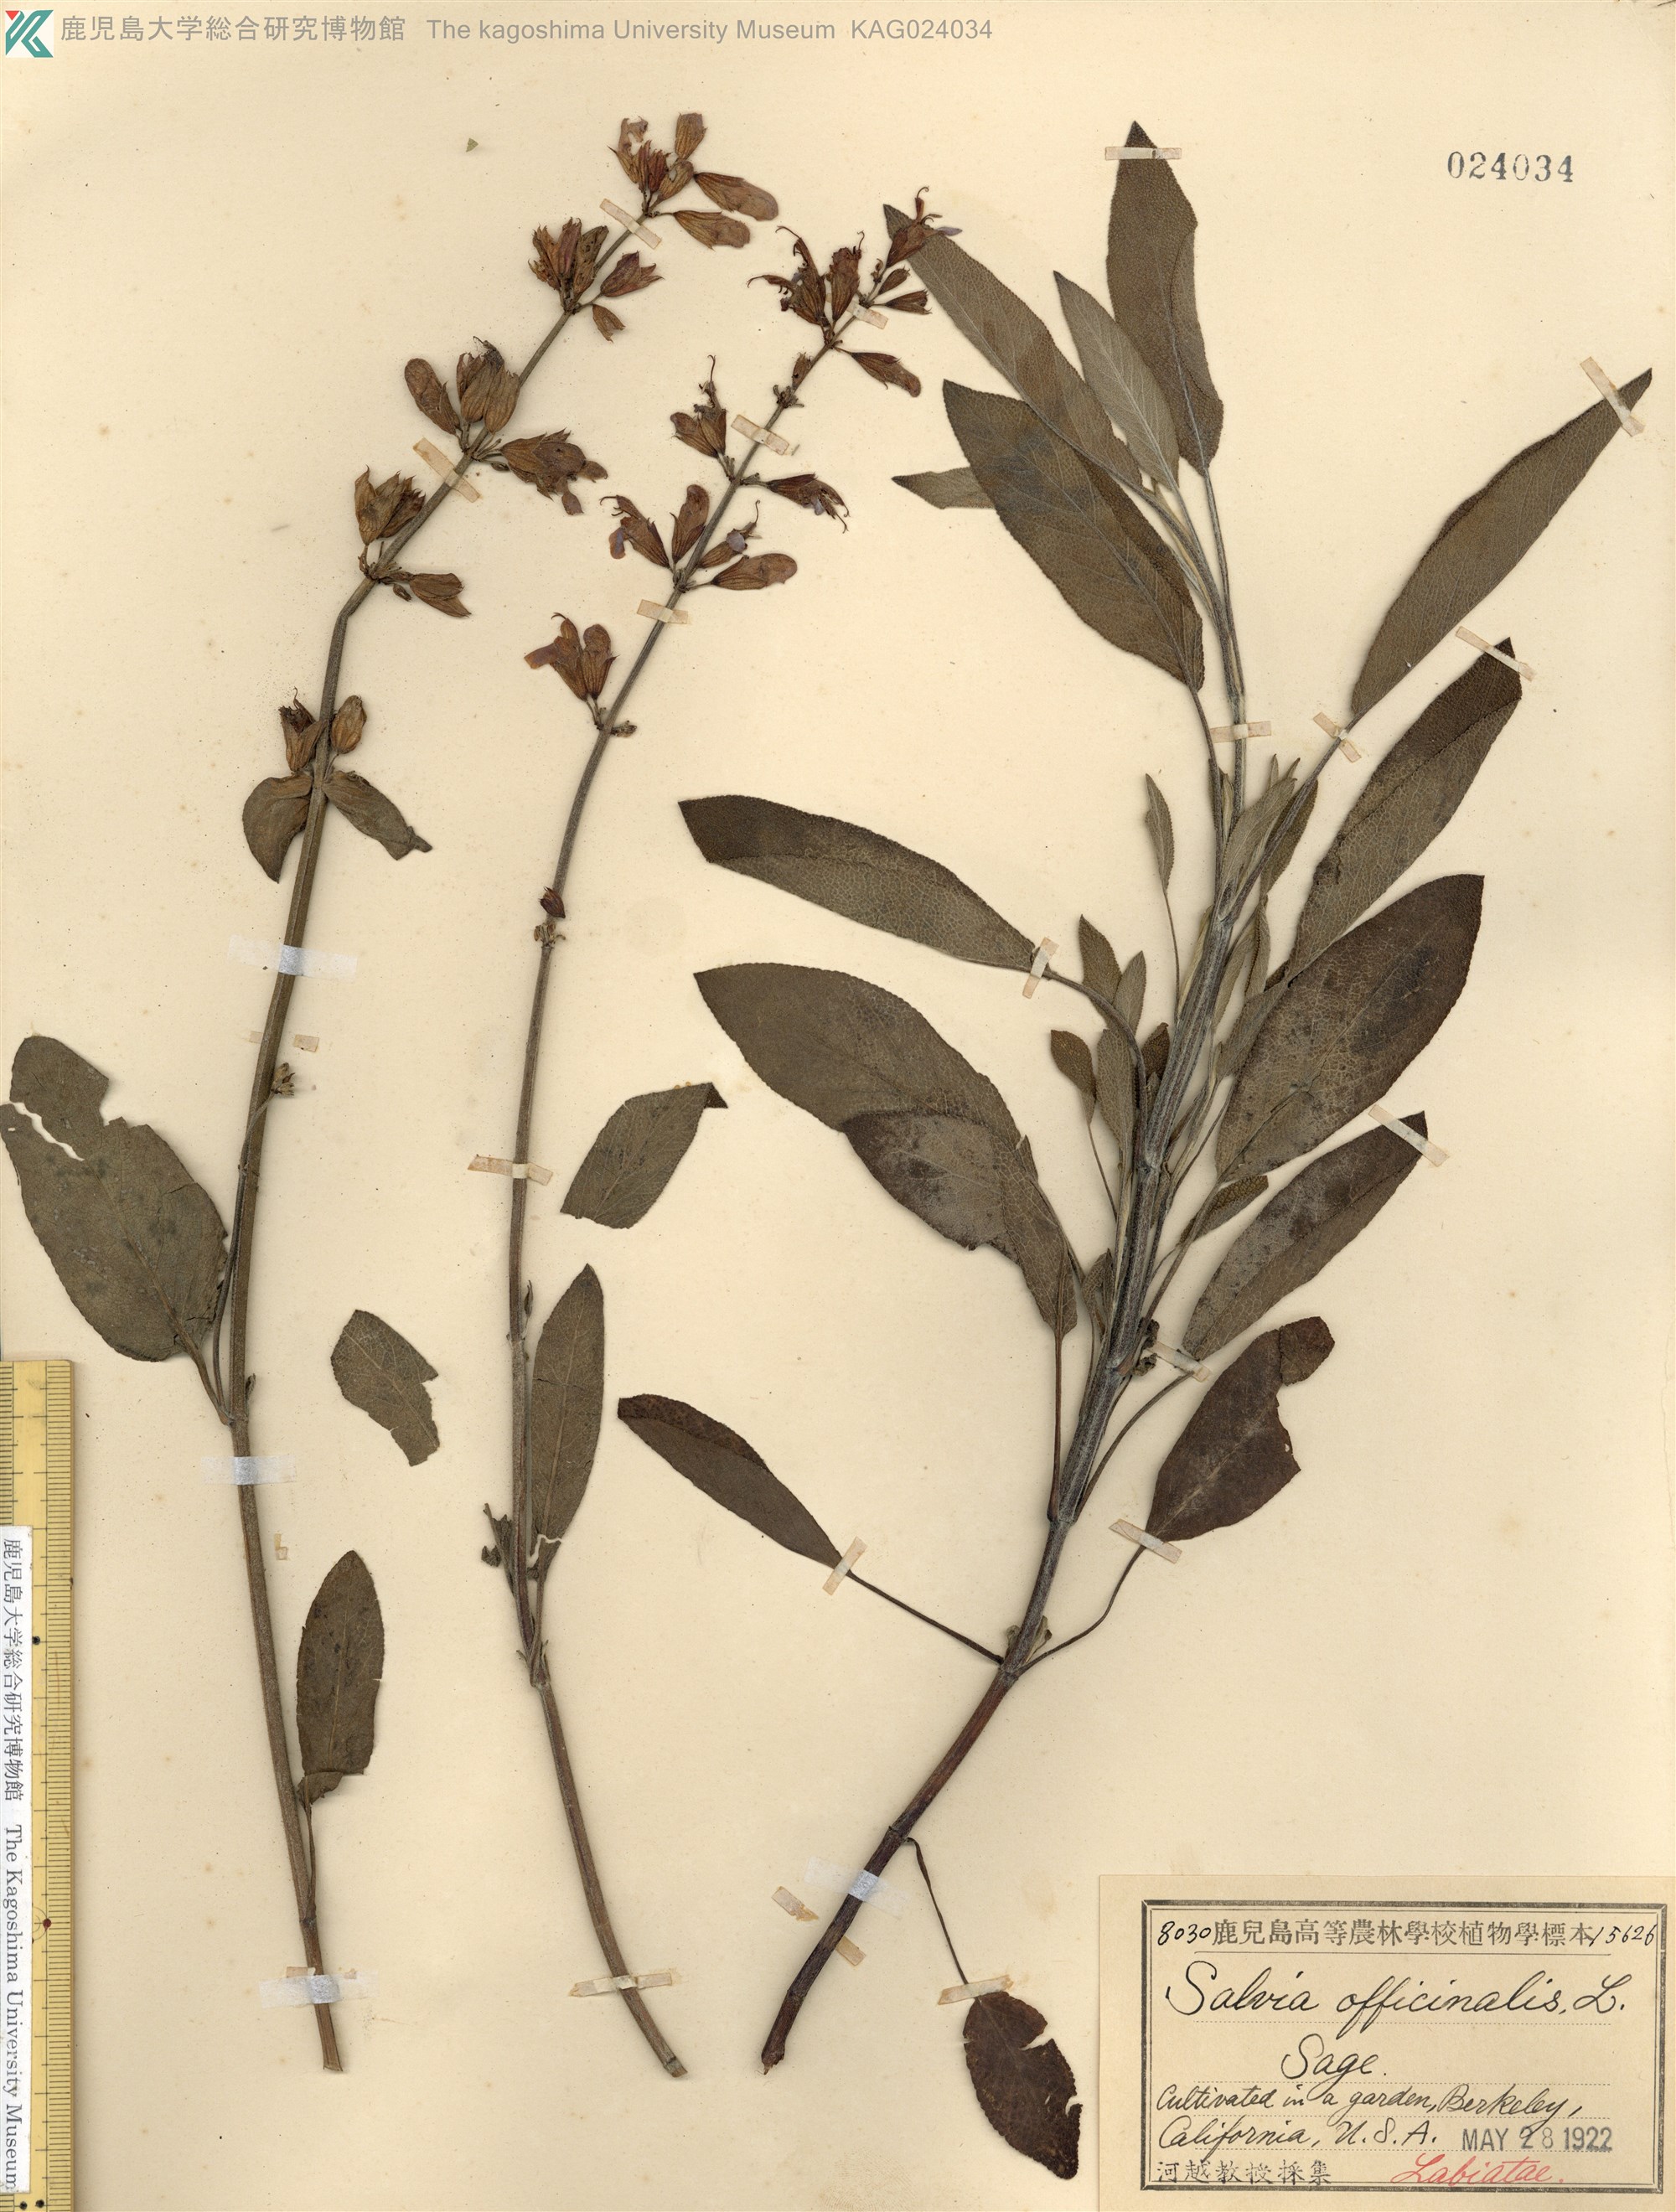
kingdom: Plantae
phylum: Tracheophyta
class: Magnoliopsida
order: Lamiales
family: Lamiaceae
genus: Salvia
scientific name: Salvia officinalis
